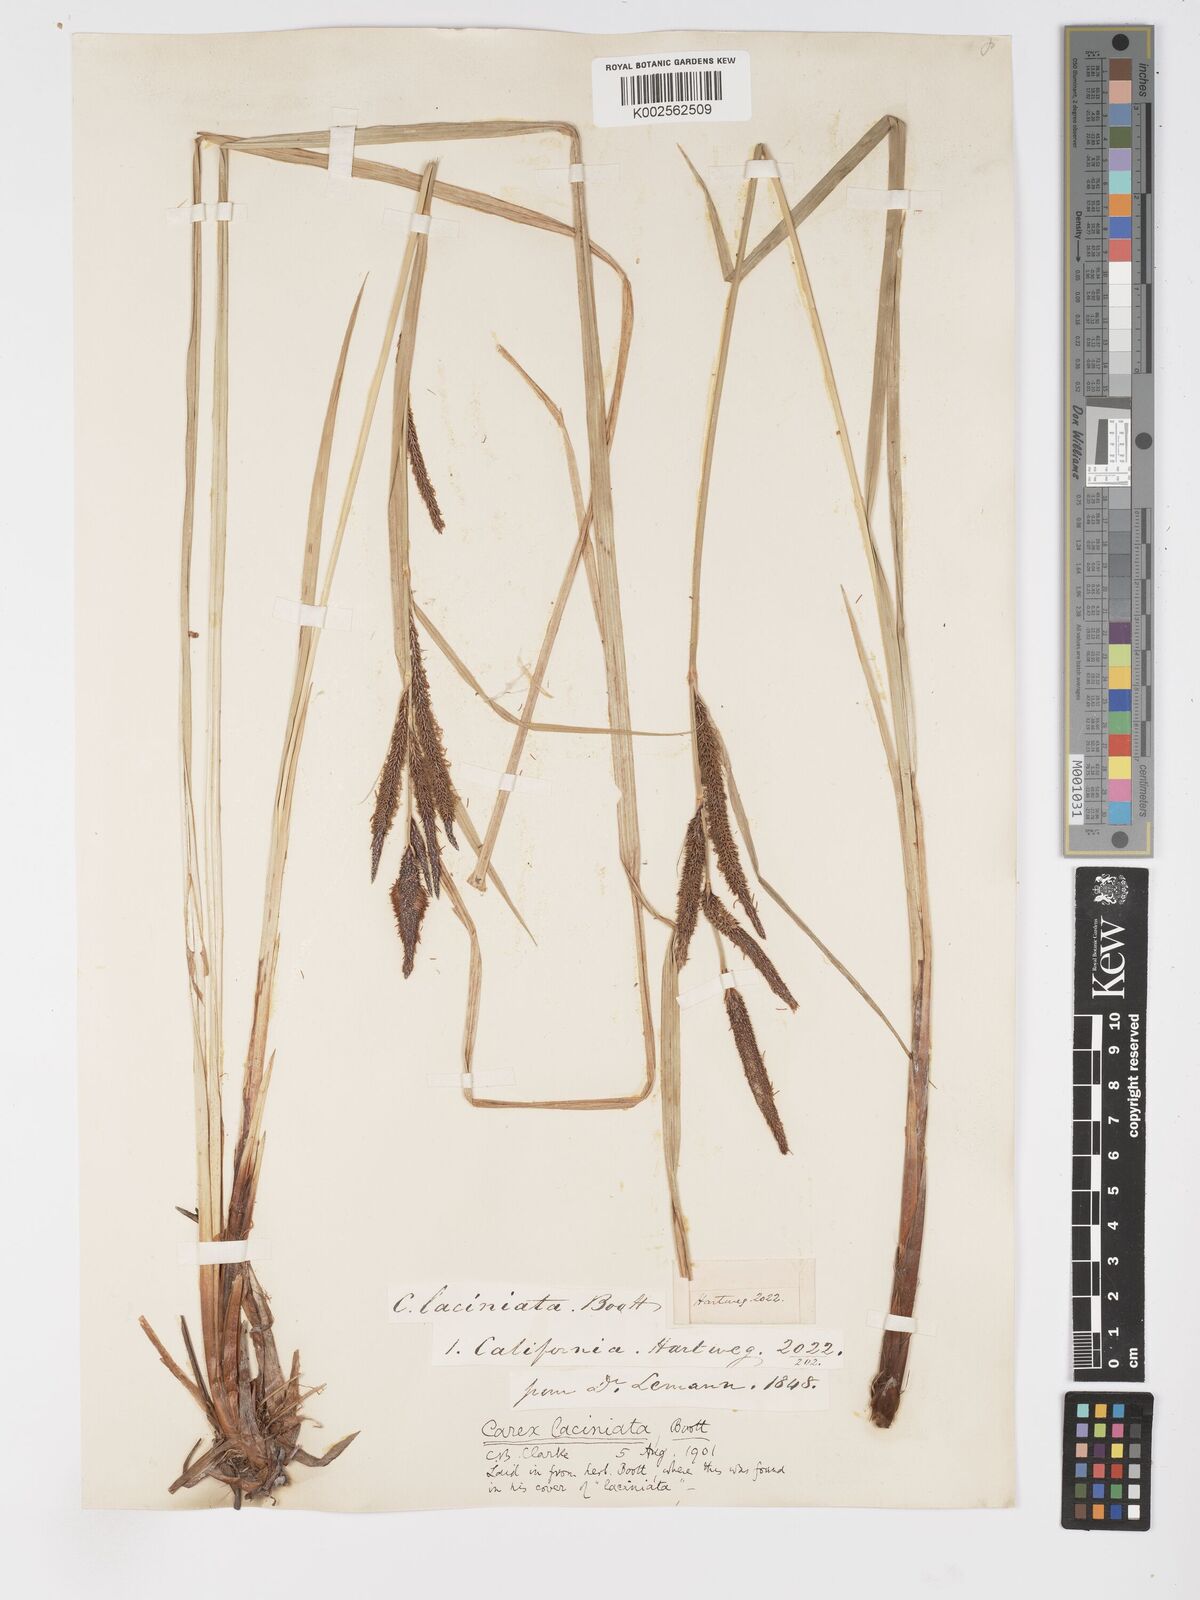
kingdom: Plantae
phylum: Tracheophyta
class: Liliopsida
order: Poales
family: Cyperaceae
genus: Carex
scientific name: Carex barbarae
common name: Santa barbara sedge
